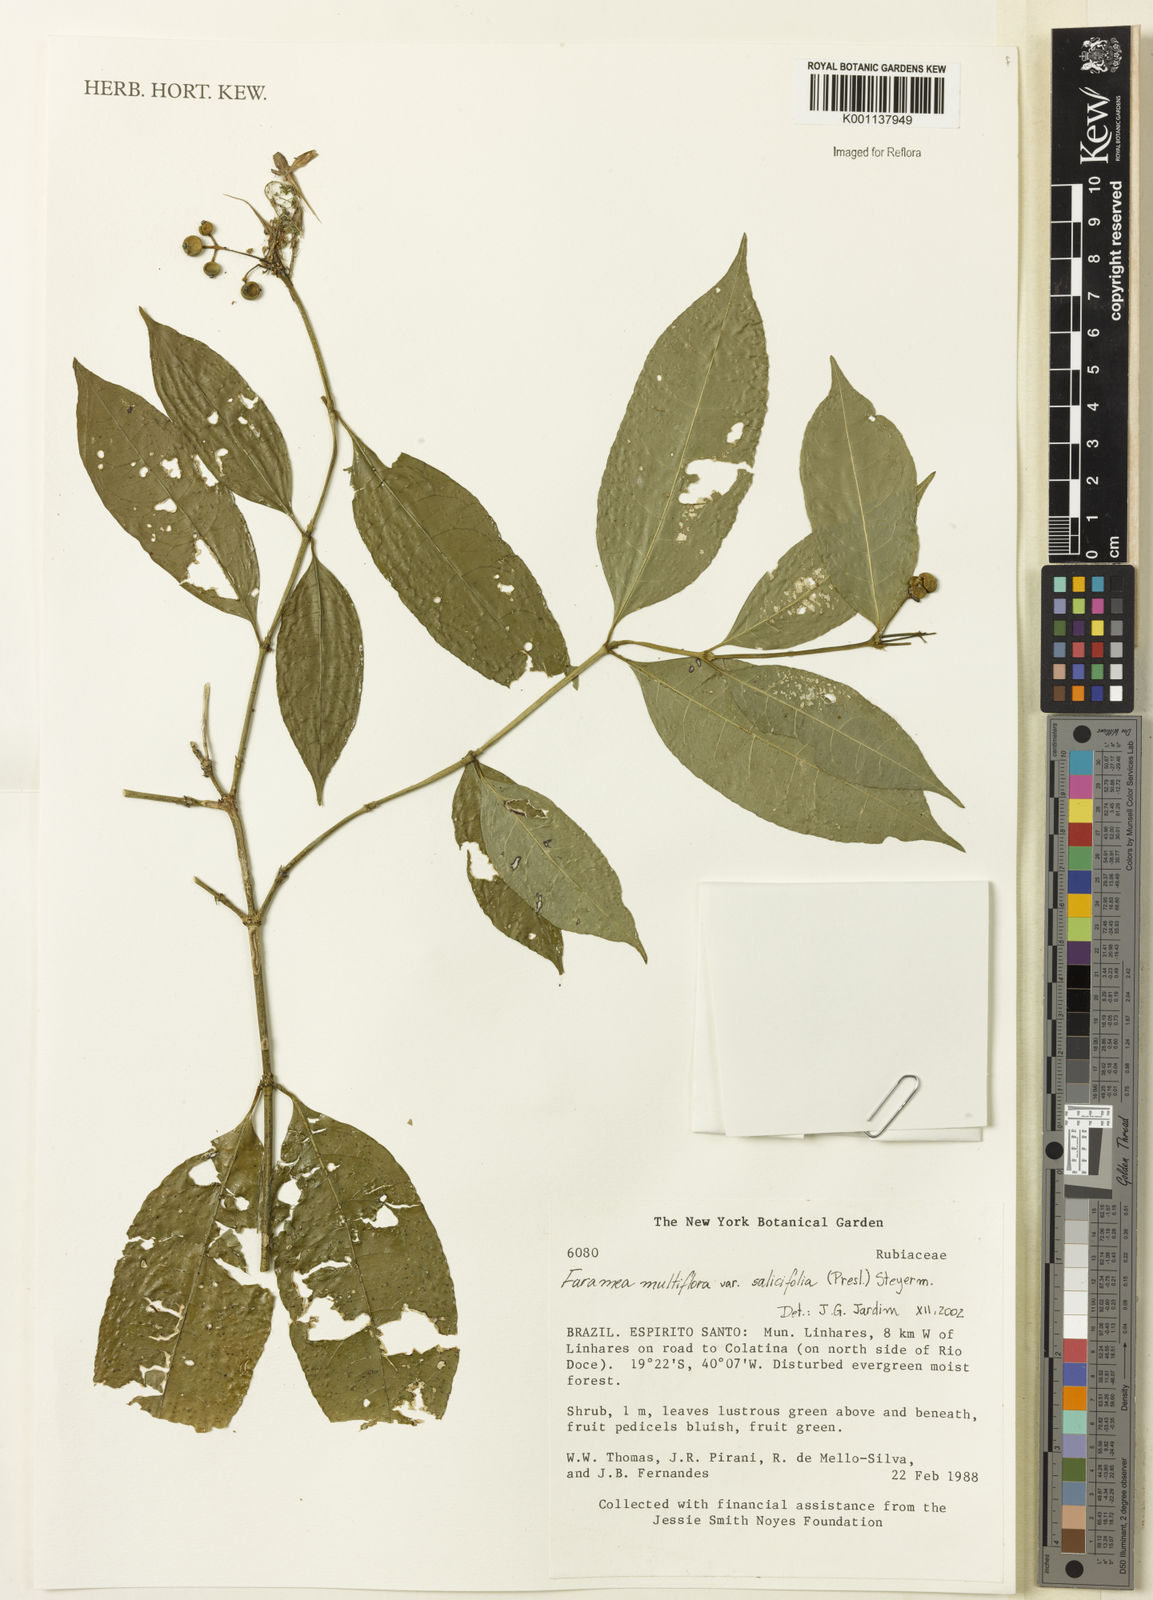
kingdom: Plantae
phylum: Tracheophyta
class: Magnoliopsida
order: Gentianales
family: Rubiaceae
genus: Faramea
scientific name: Faramea multiflora
